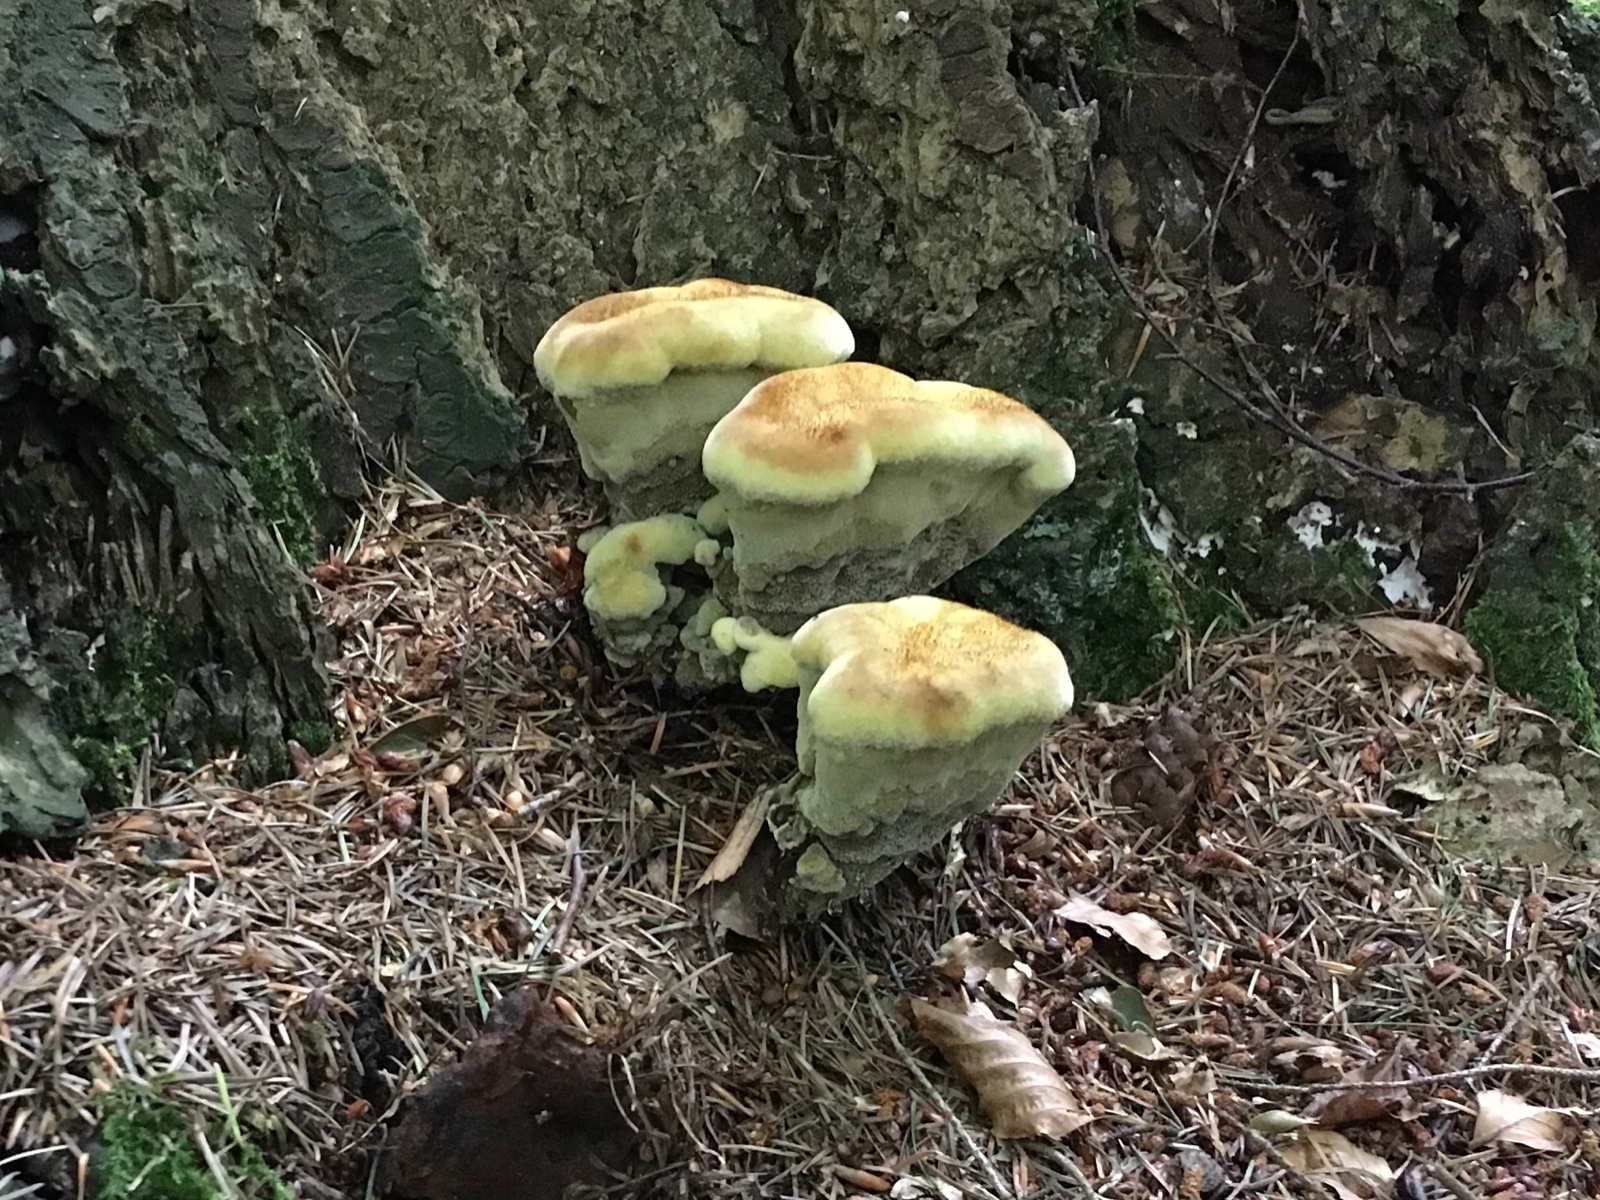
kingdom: Fungi
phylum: Basidiomycota
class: Agaricomycetes
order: Polyporales
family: Laetiporaceae
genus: Phaeolus
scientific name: Phaeolus schweinitzii
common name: brunporesvamp
